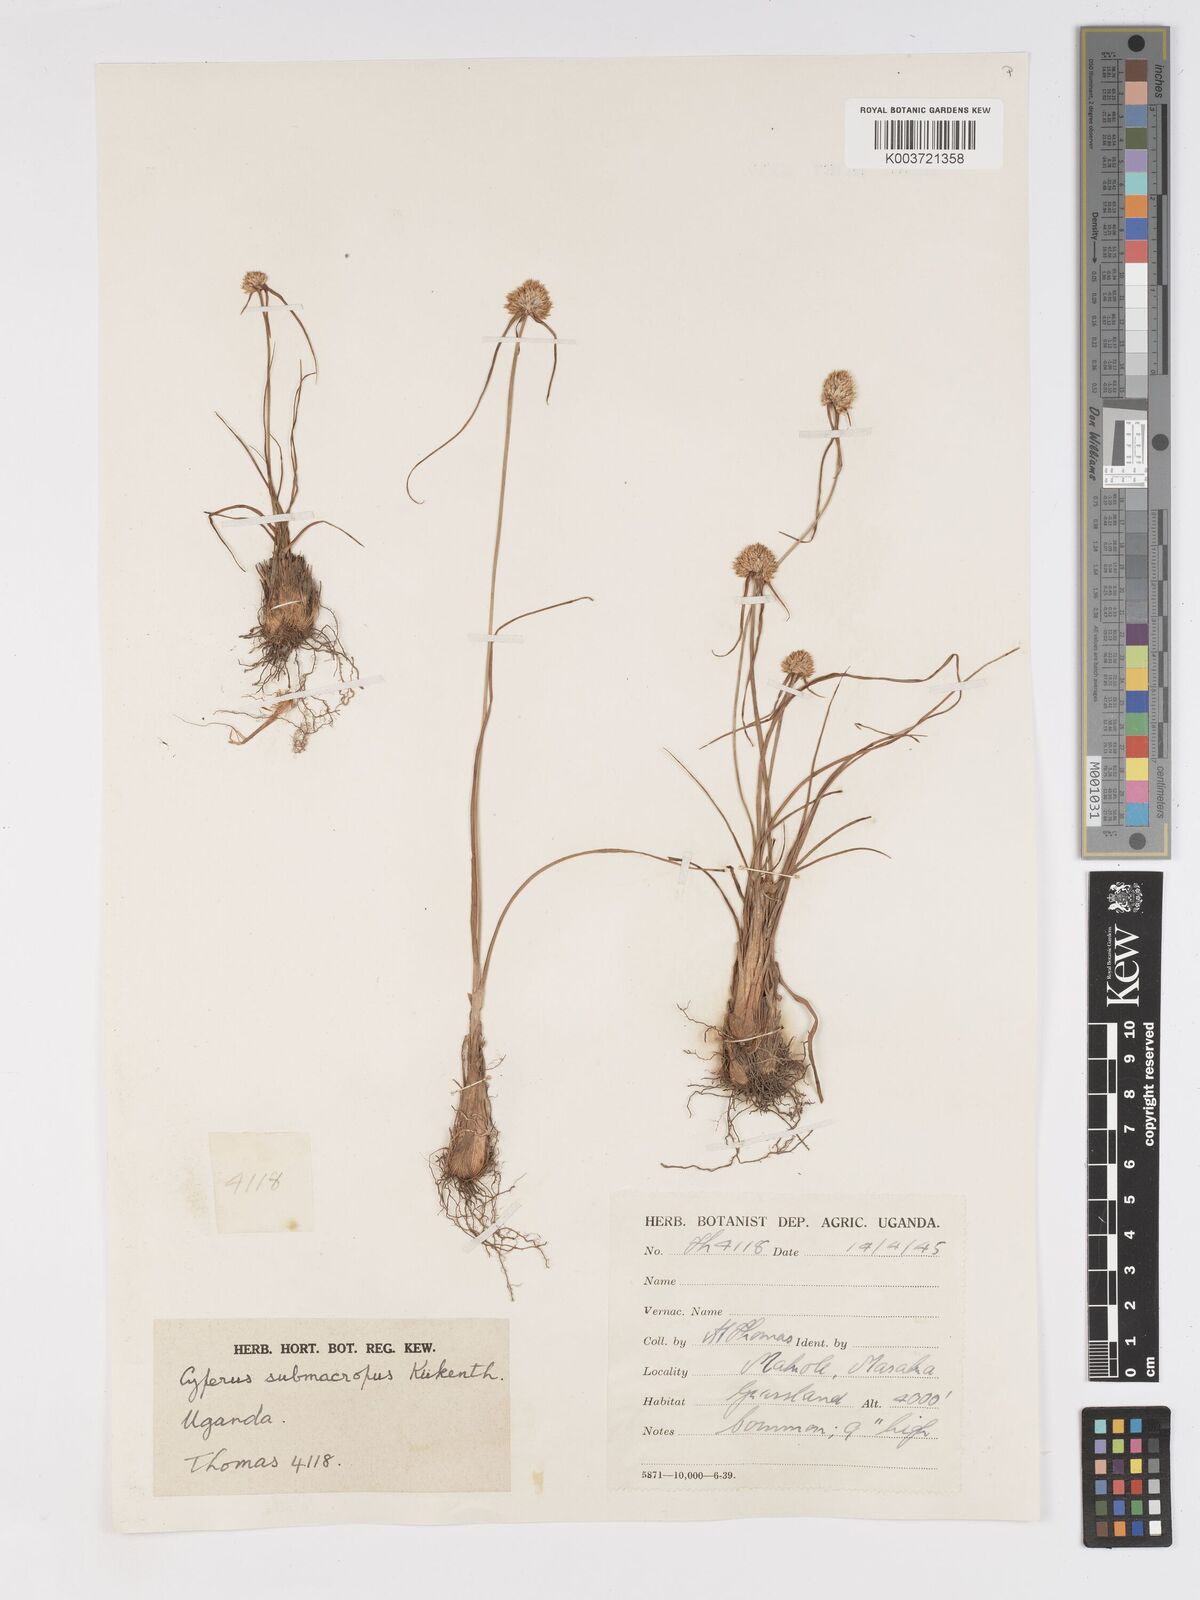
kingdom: Plantae
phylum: Tracheophyta
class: Liliopsida
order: Poales
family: Cyperaceae
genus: Cyperus
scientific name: Cyperus mollipes
